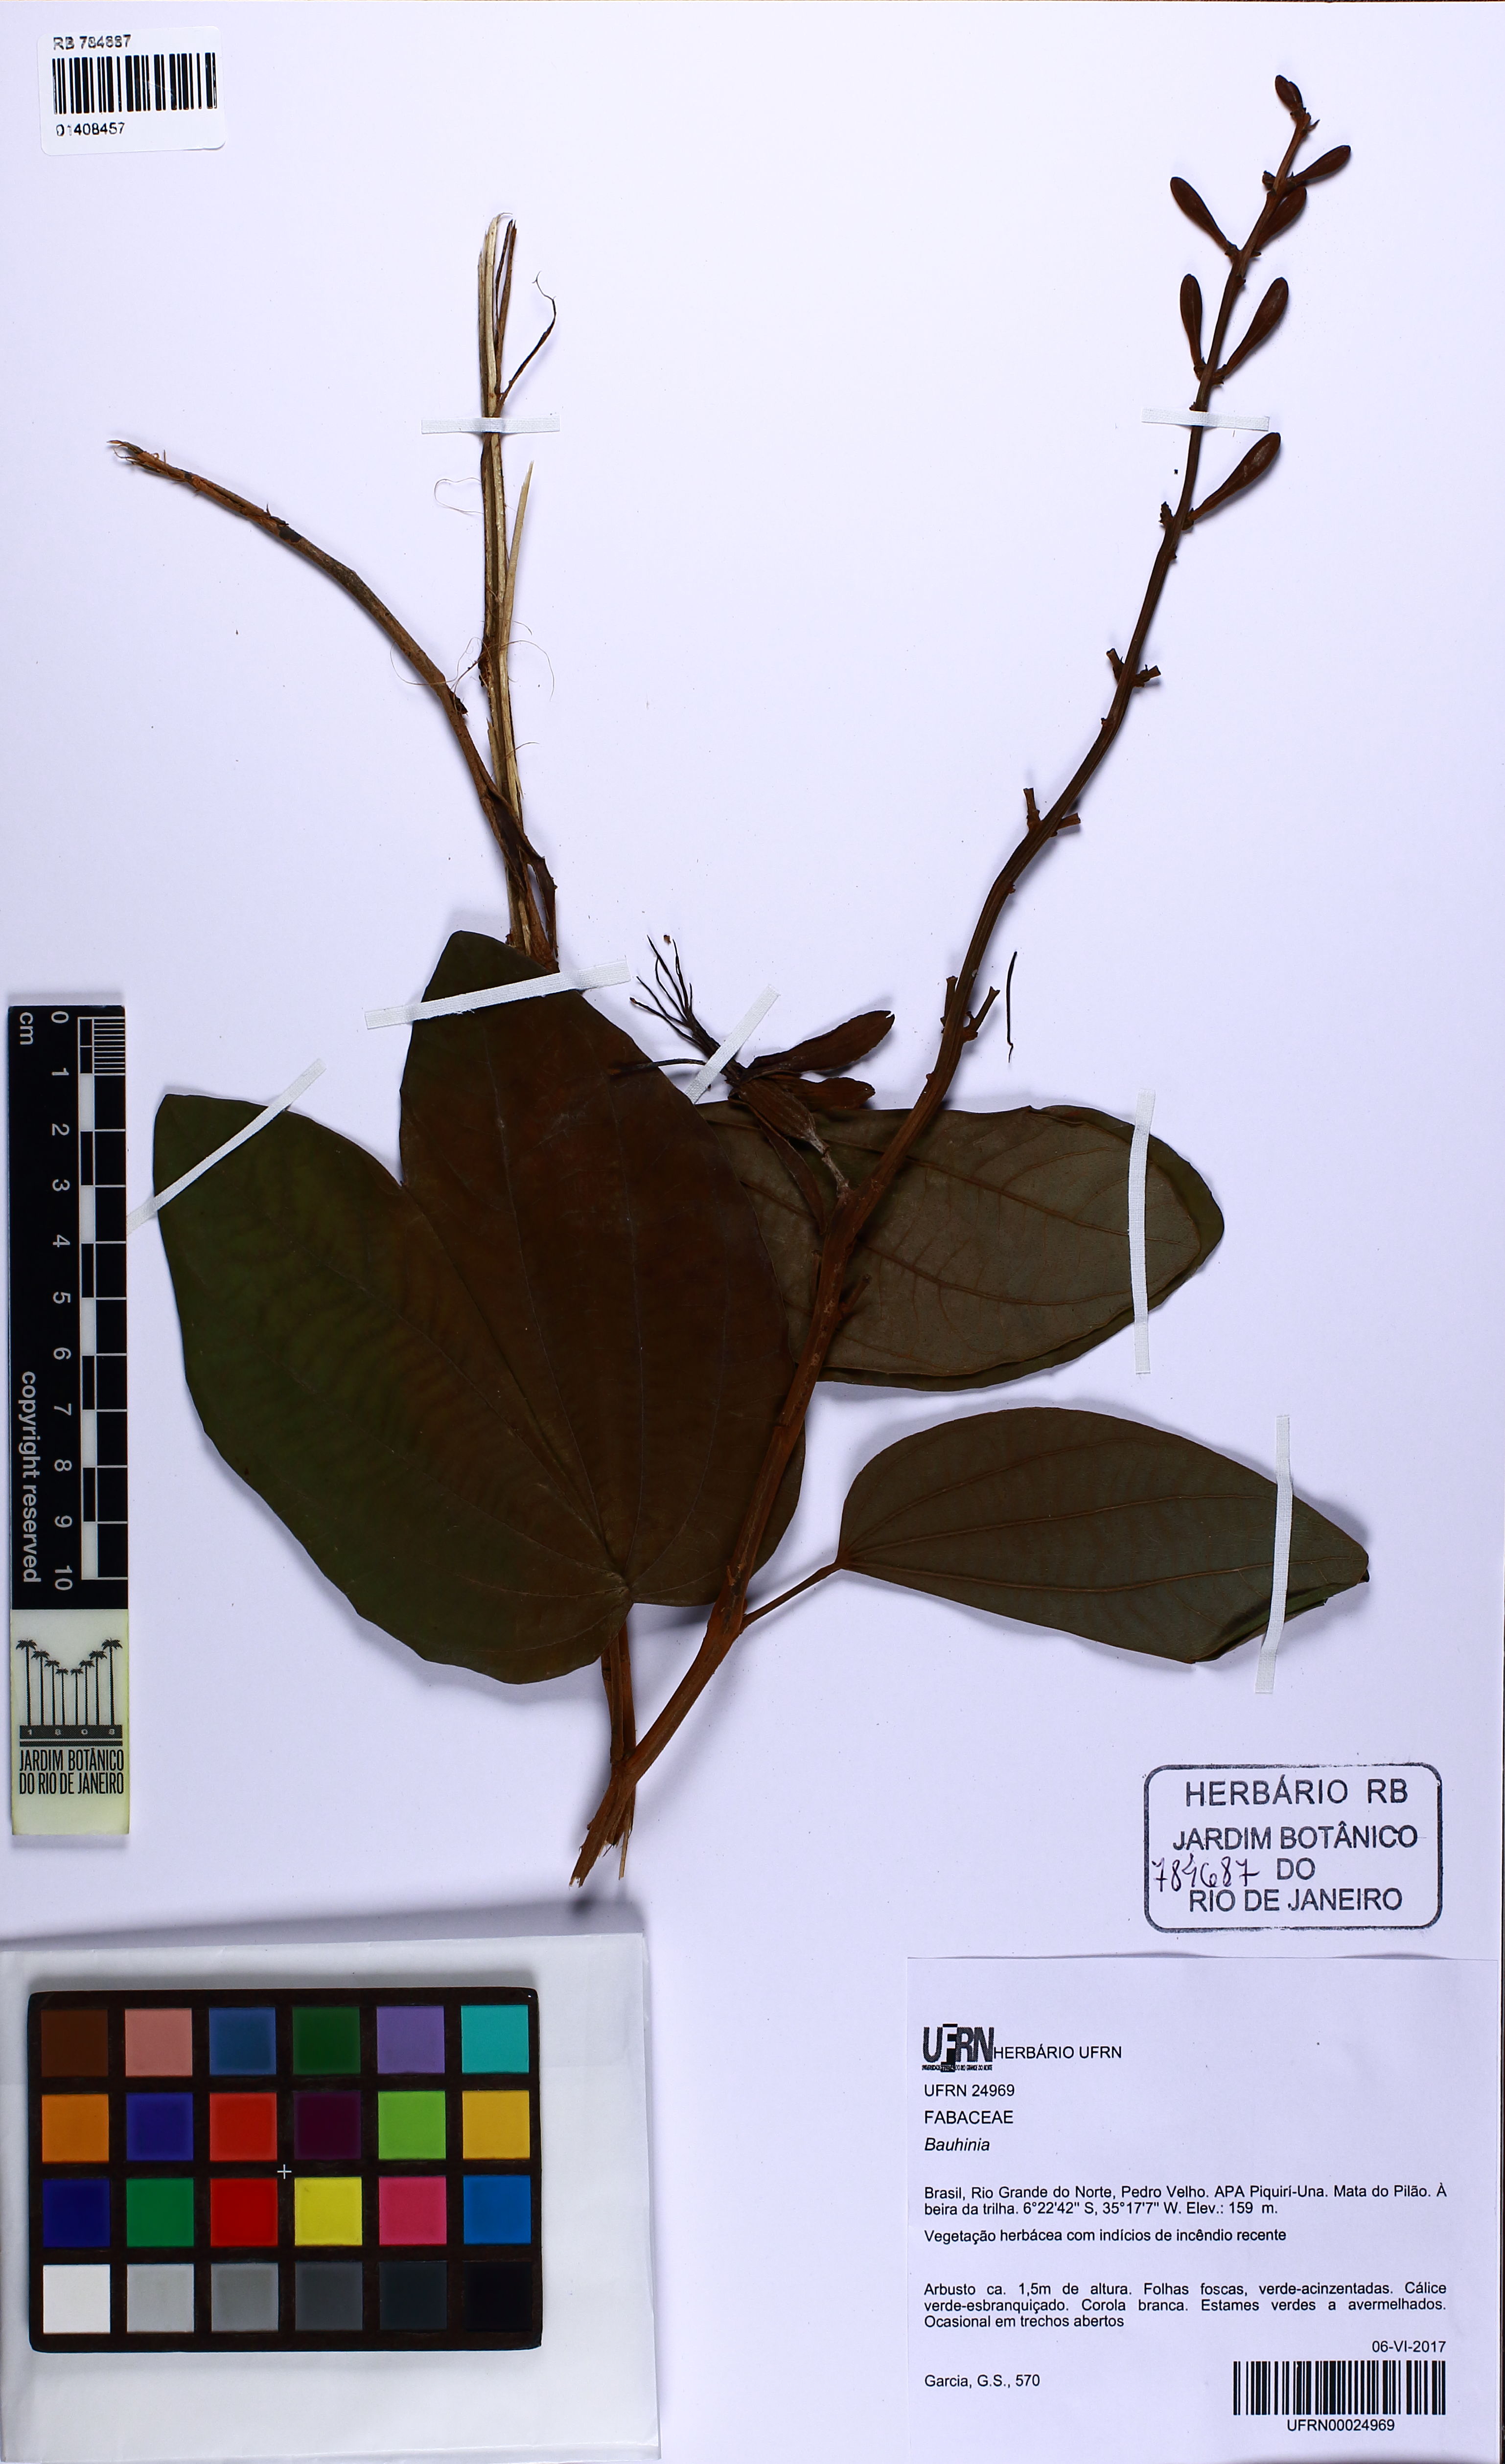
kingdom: Plantae
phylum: Tracheophyta
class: Magnoliopsida
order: Fabales
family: Fabaceae
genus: Bauhinia
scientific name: Bauhinia
